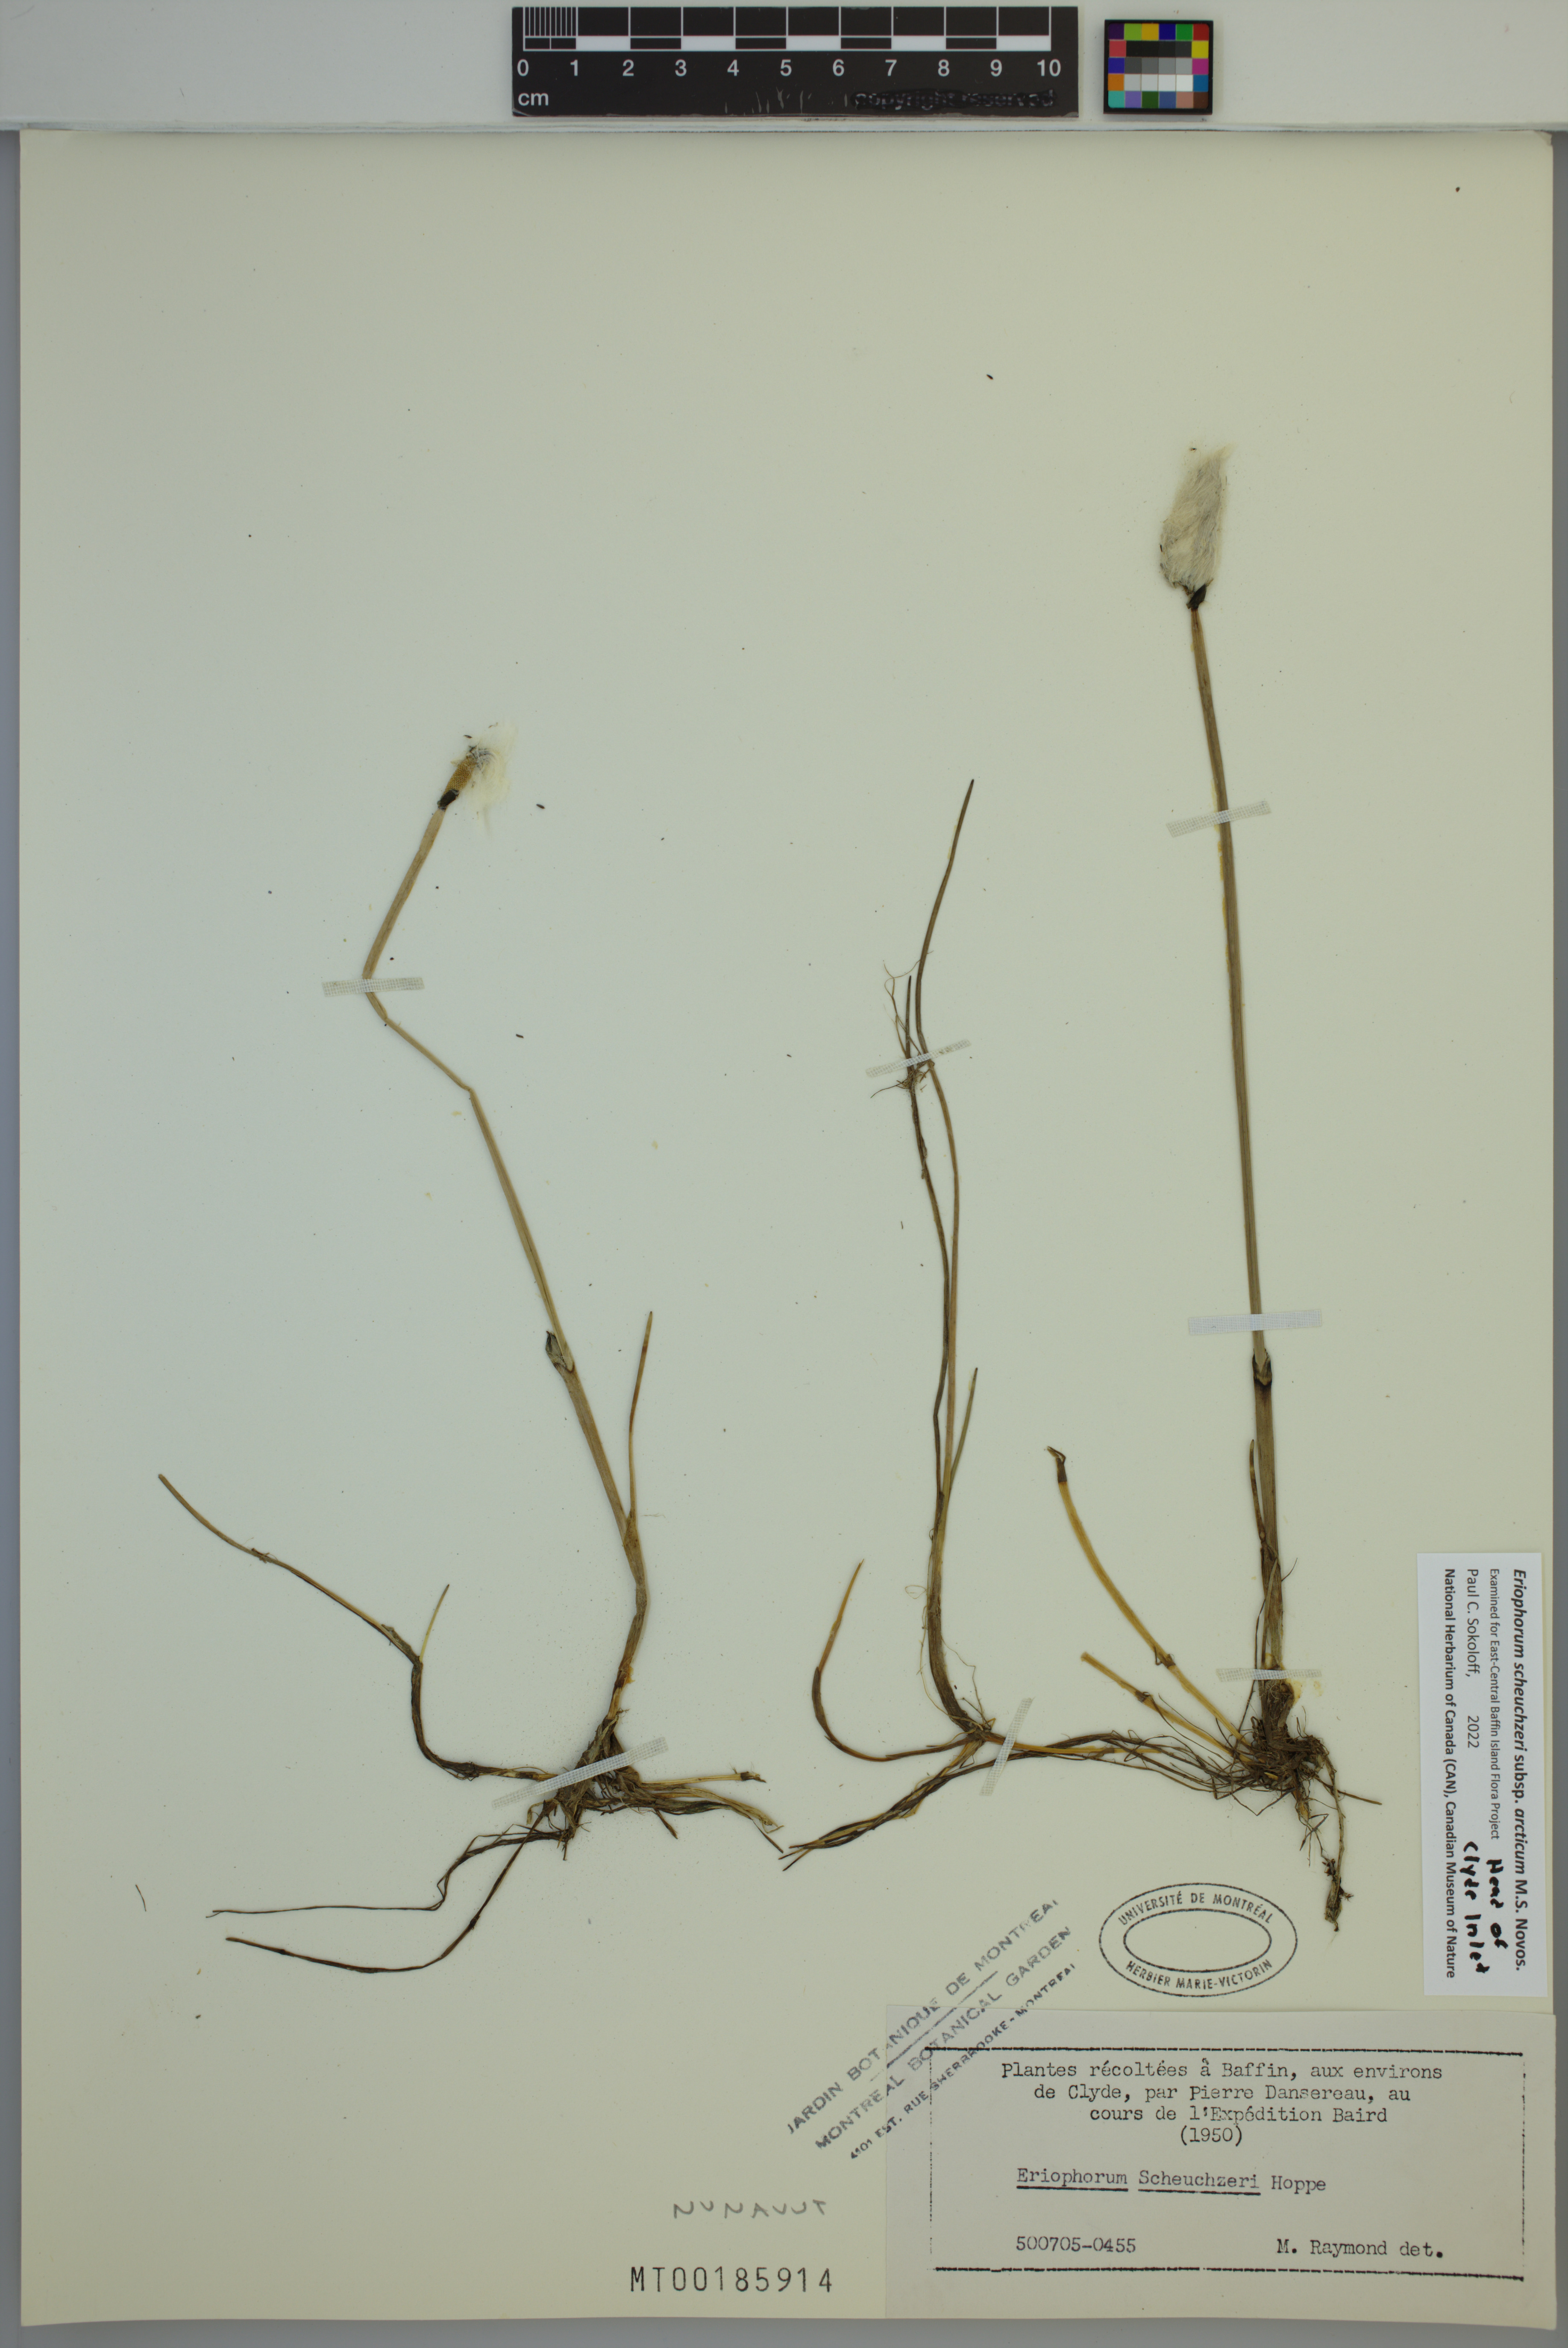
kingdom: Plantae
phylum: Tracheophyta
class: Liliopsida
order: Poales
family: Cyperaceae
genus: Eriophorum
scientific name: Eriophorum scheuchzeri
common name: Scheuchzer's cottongrass
